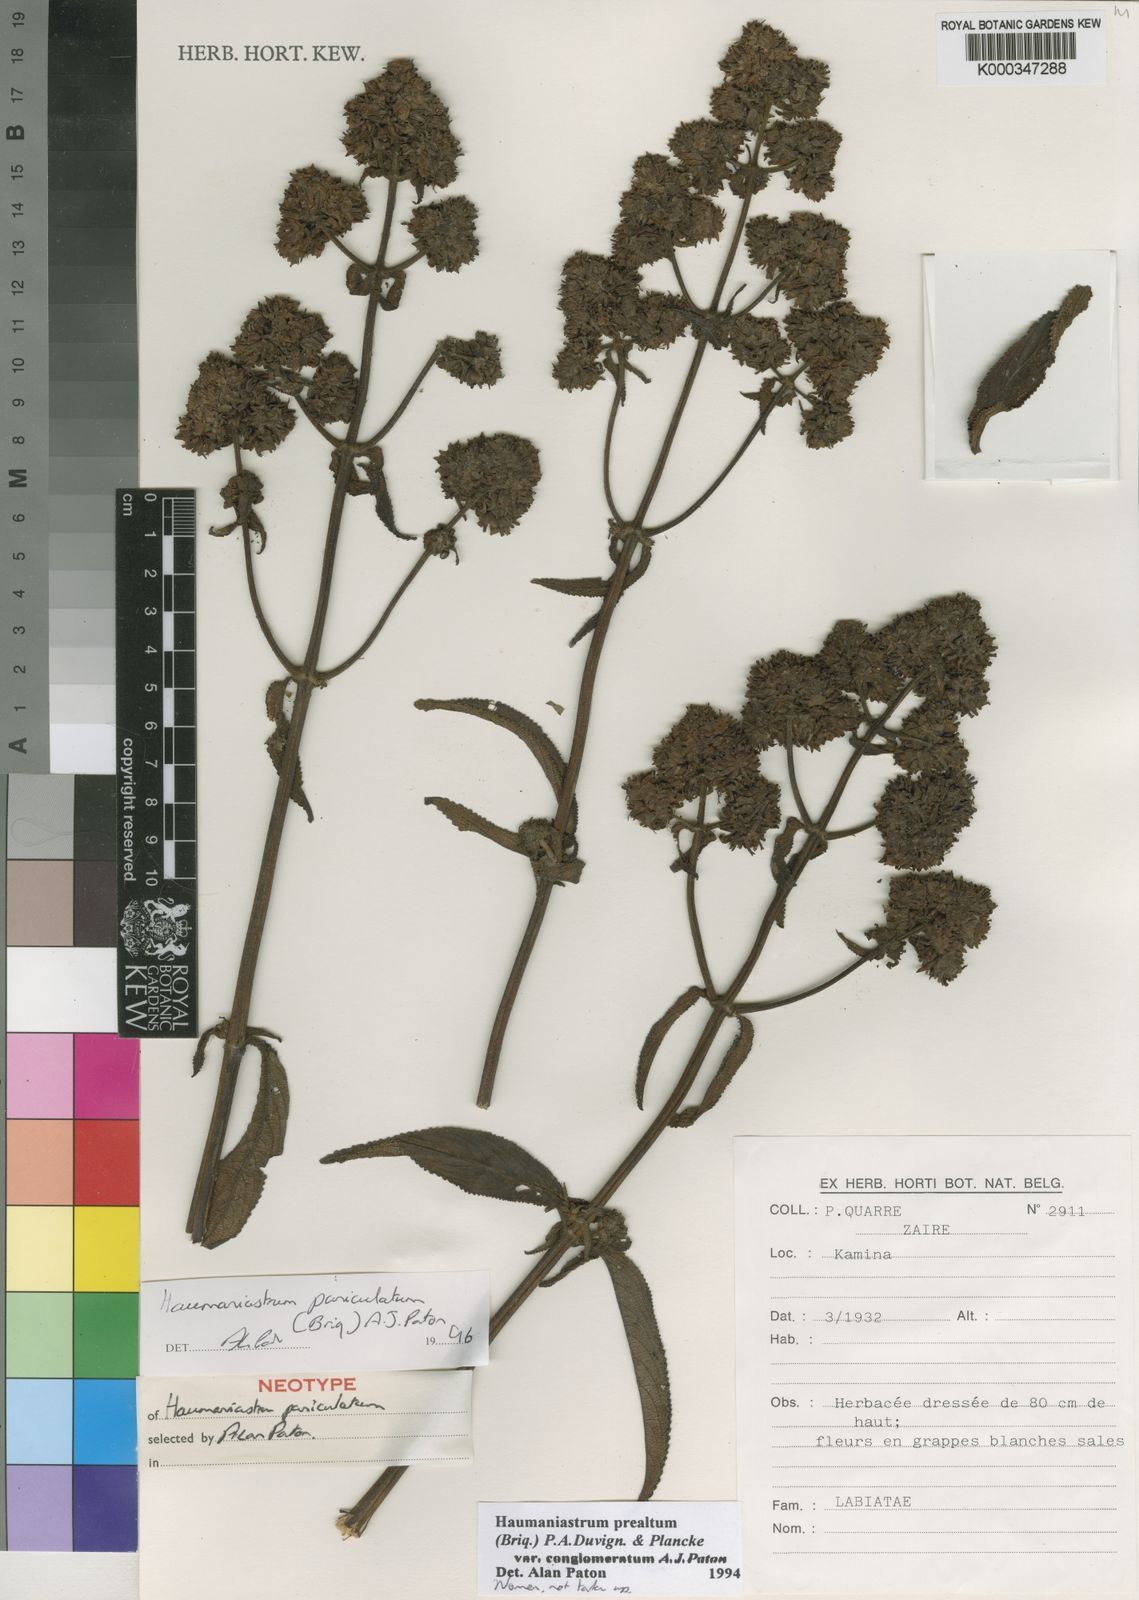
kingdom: Plantae
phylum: Tracheophyta
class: Magnoliopsida
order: Lamiales
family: Lamiaceae
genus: Haumaniastrum
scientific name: Haumaniastrum paniculatum
